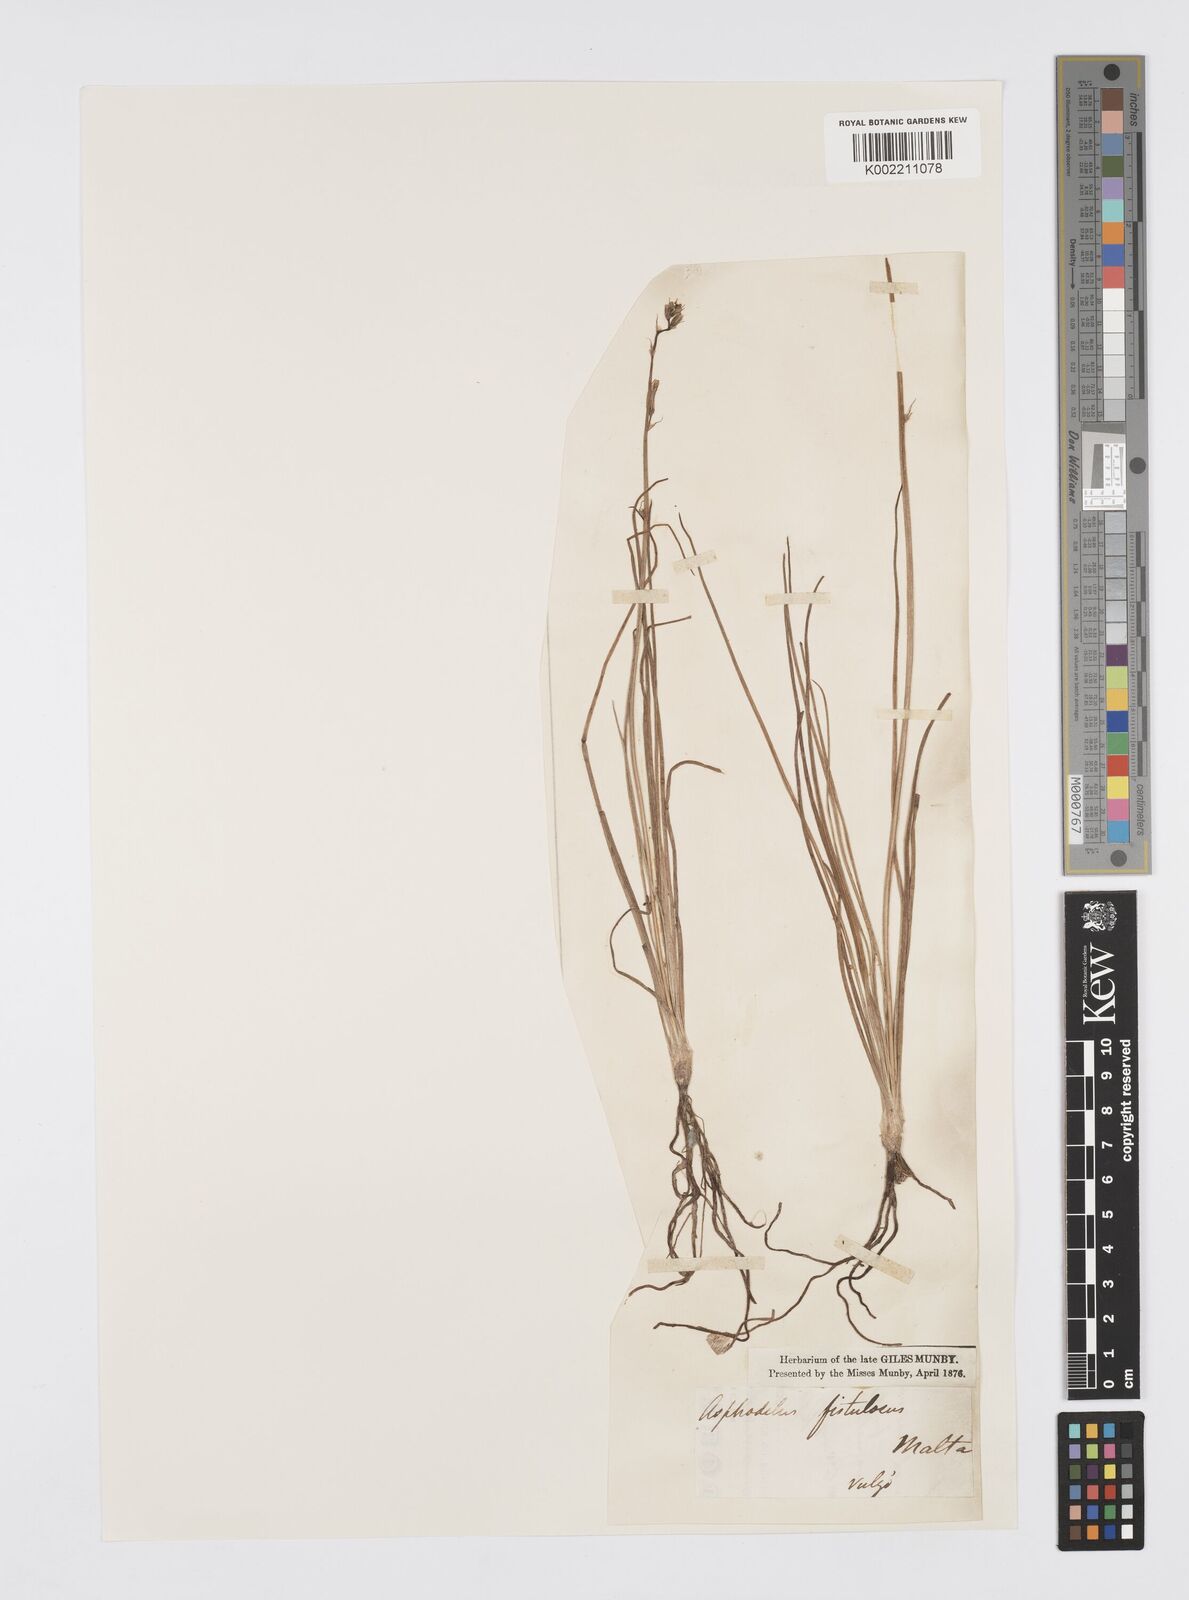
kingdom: Plantae
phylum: Tracheophyta
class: Liliopsida
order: Asparagales
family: Asphodelaceae
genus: Asphodelus
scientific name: Asphodelus fistulosus
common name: Onionweed
